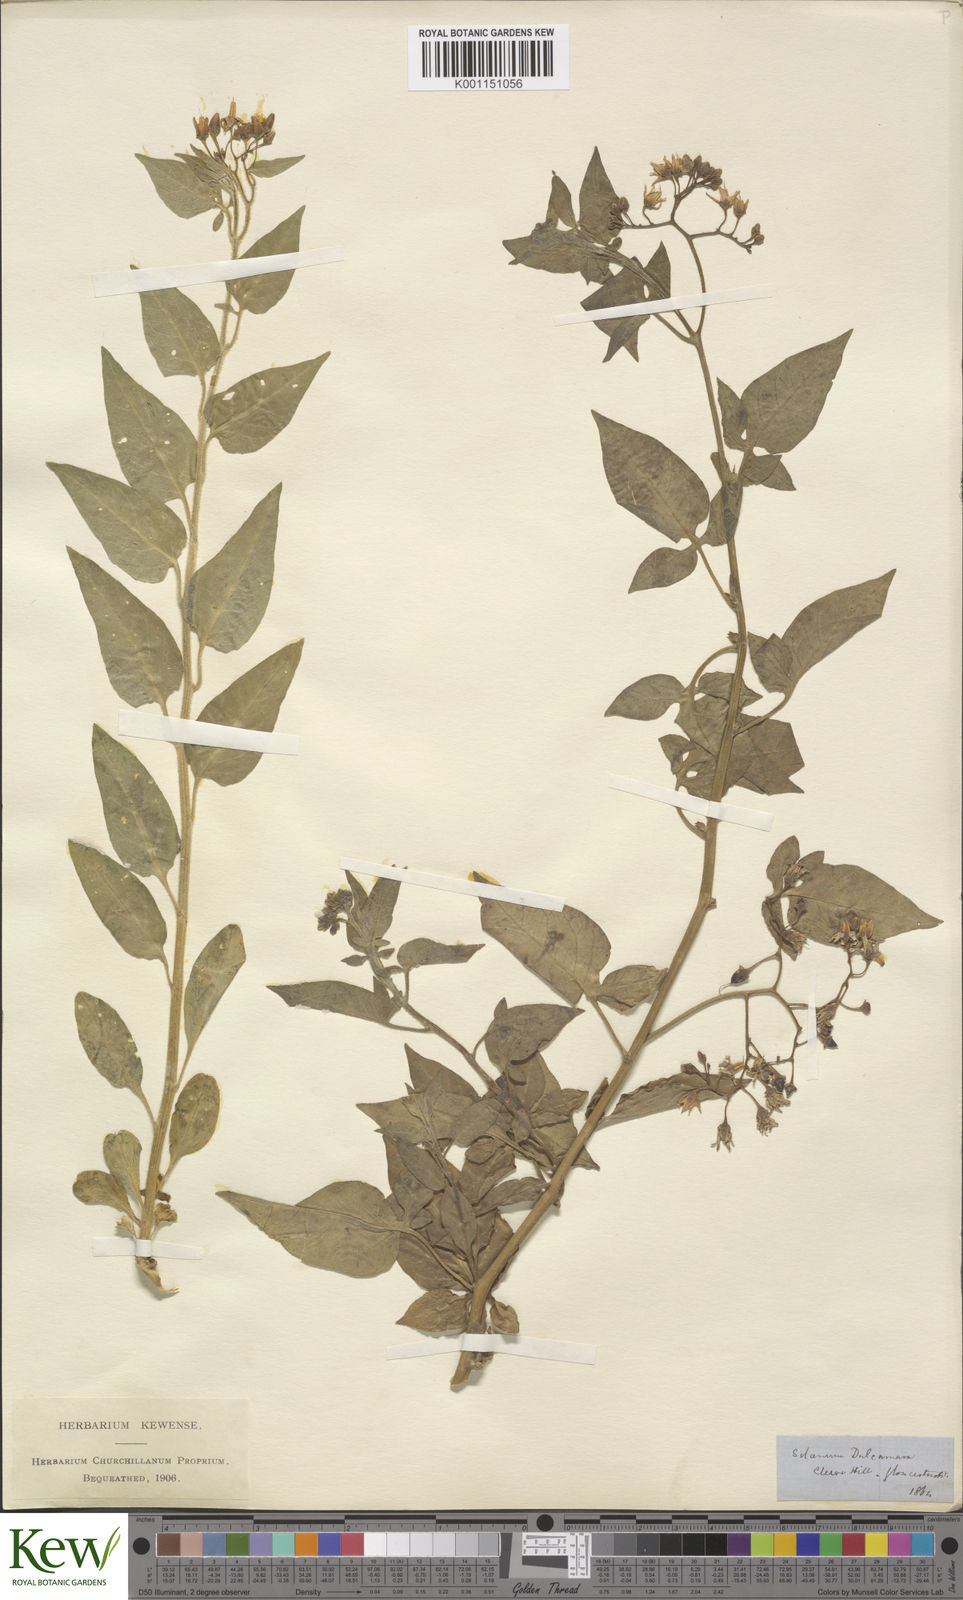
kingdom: Plantae
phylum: Tracheophyta
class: Magnoliopsida
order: Solanales
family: Solanaceae
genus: Solanum
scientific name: Solanum dulcamara
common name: Climbing nightshade
